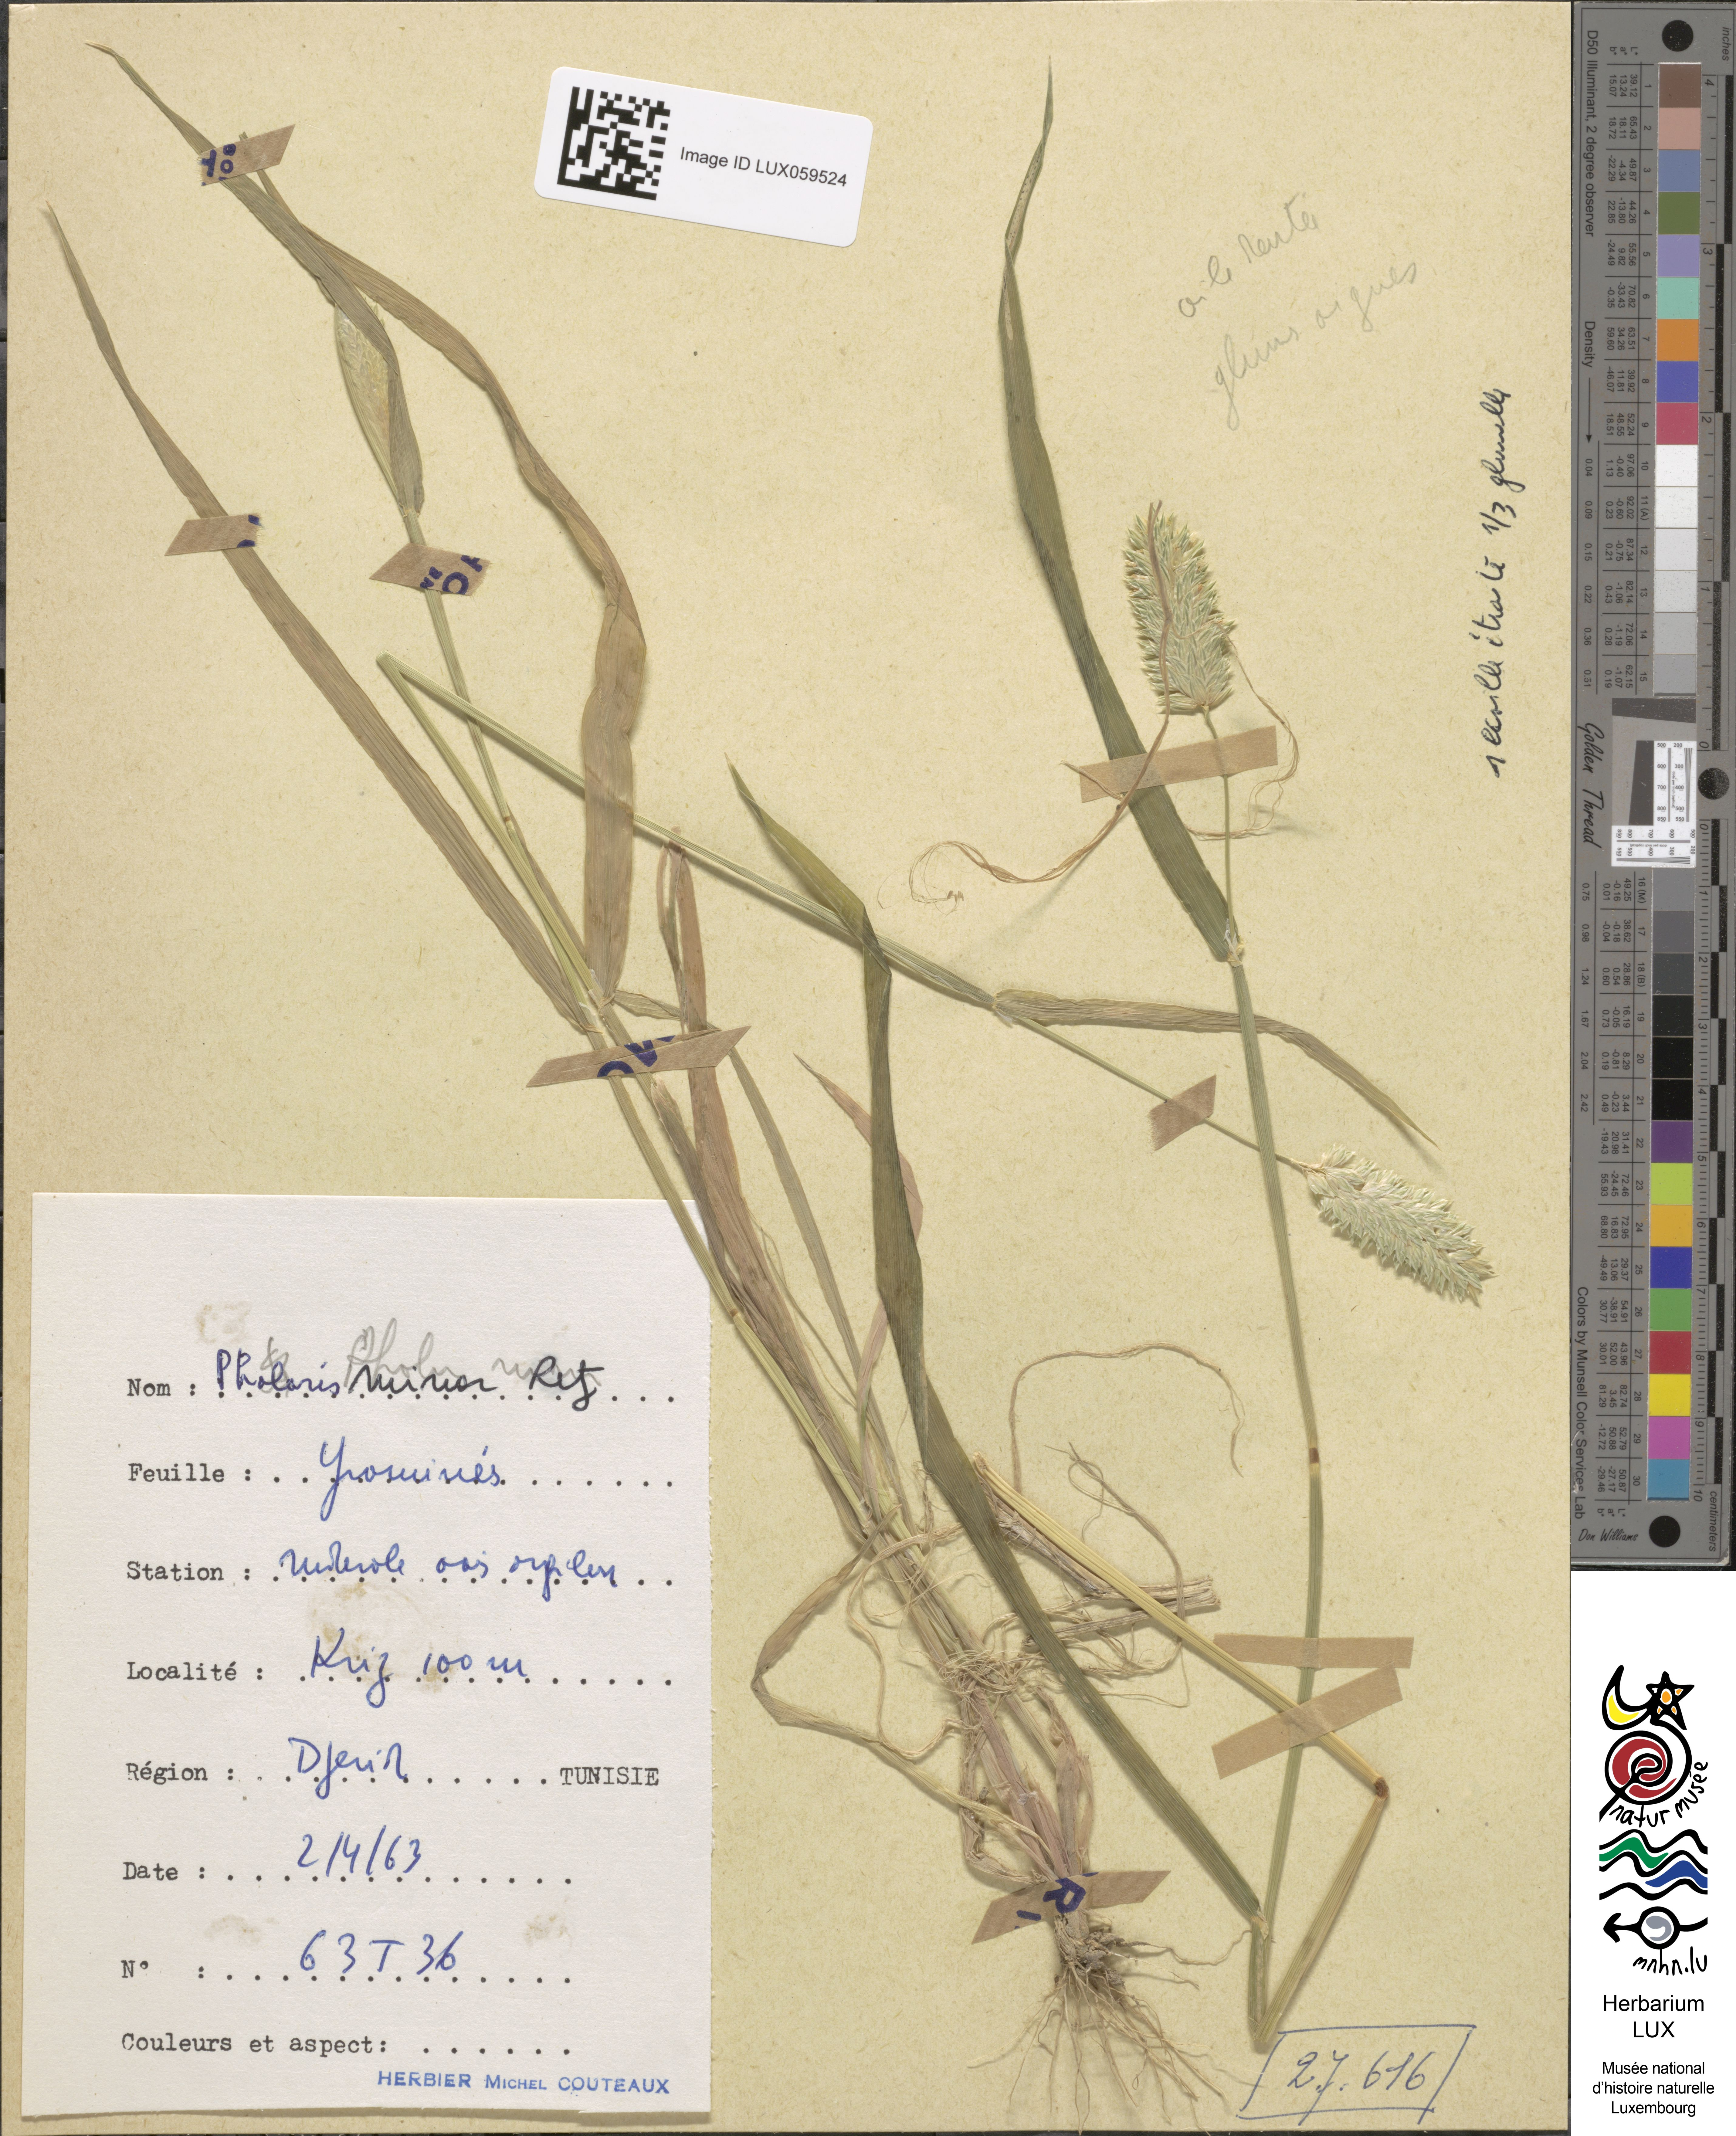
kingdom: Plantae
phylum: Tracheophyta
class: Liliopsida
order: Poales
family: Poaceae
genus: Phalaris
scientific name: Phalaris minor
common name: Littleseed canarygrass
